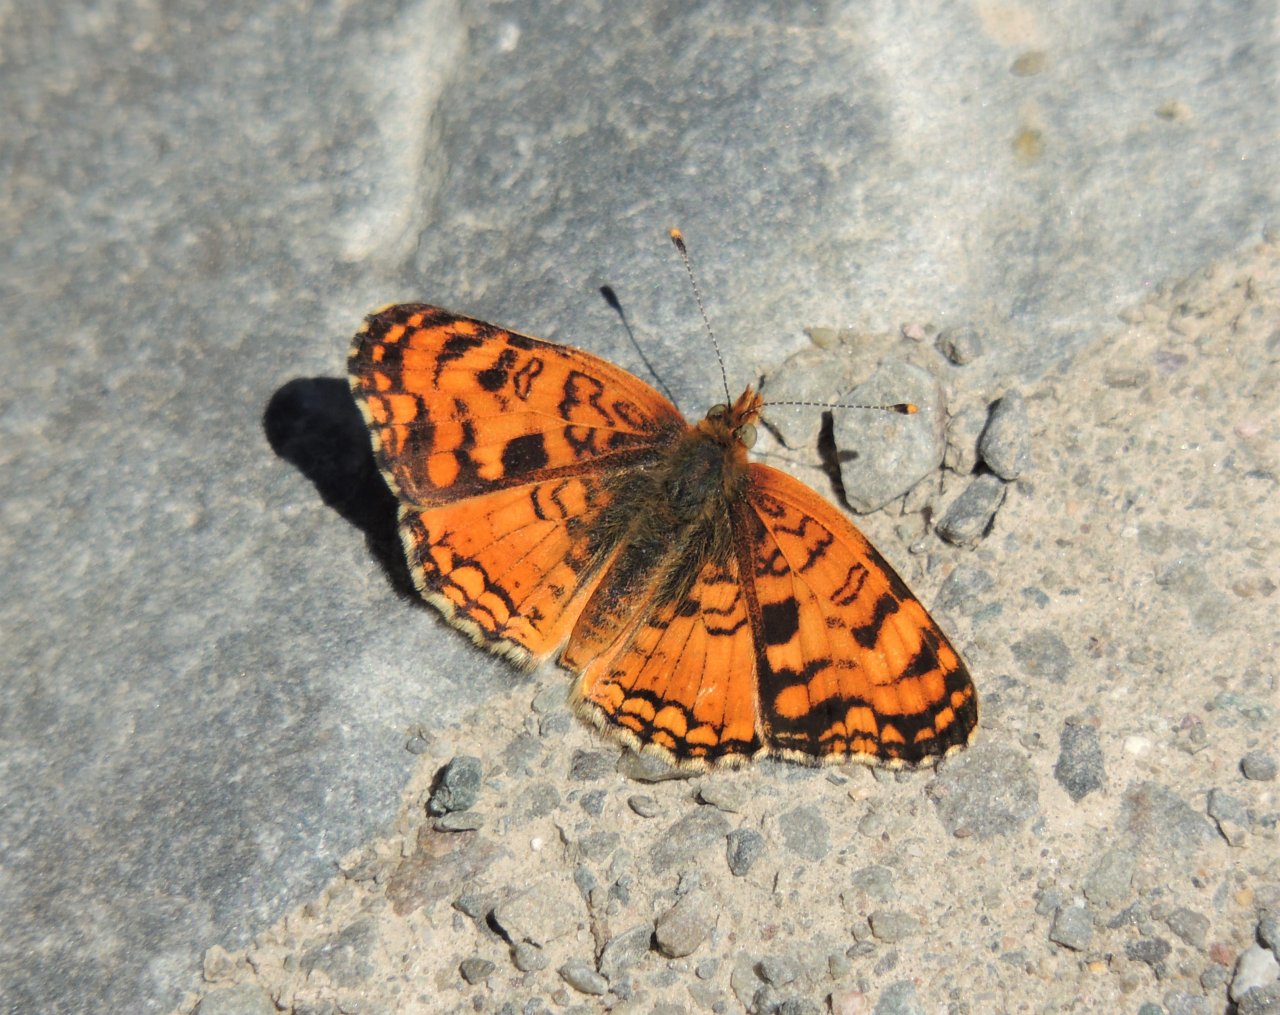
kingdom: Animalia
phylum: Arthropoda
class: Insecta
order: Lepidoptera
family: Nymphalidae
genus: Phyciodes
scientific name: Phyciodes pallida
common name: Pale Crescent
